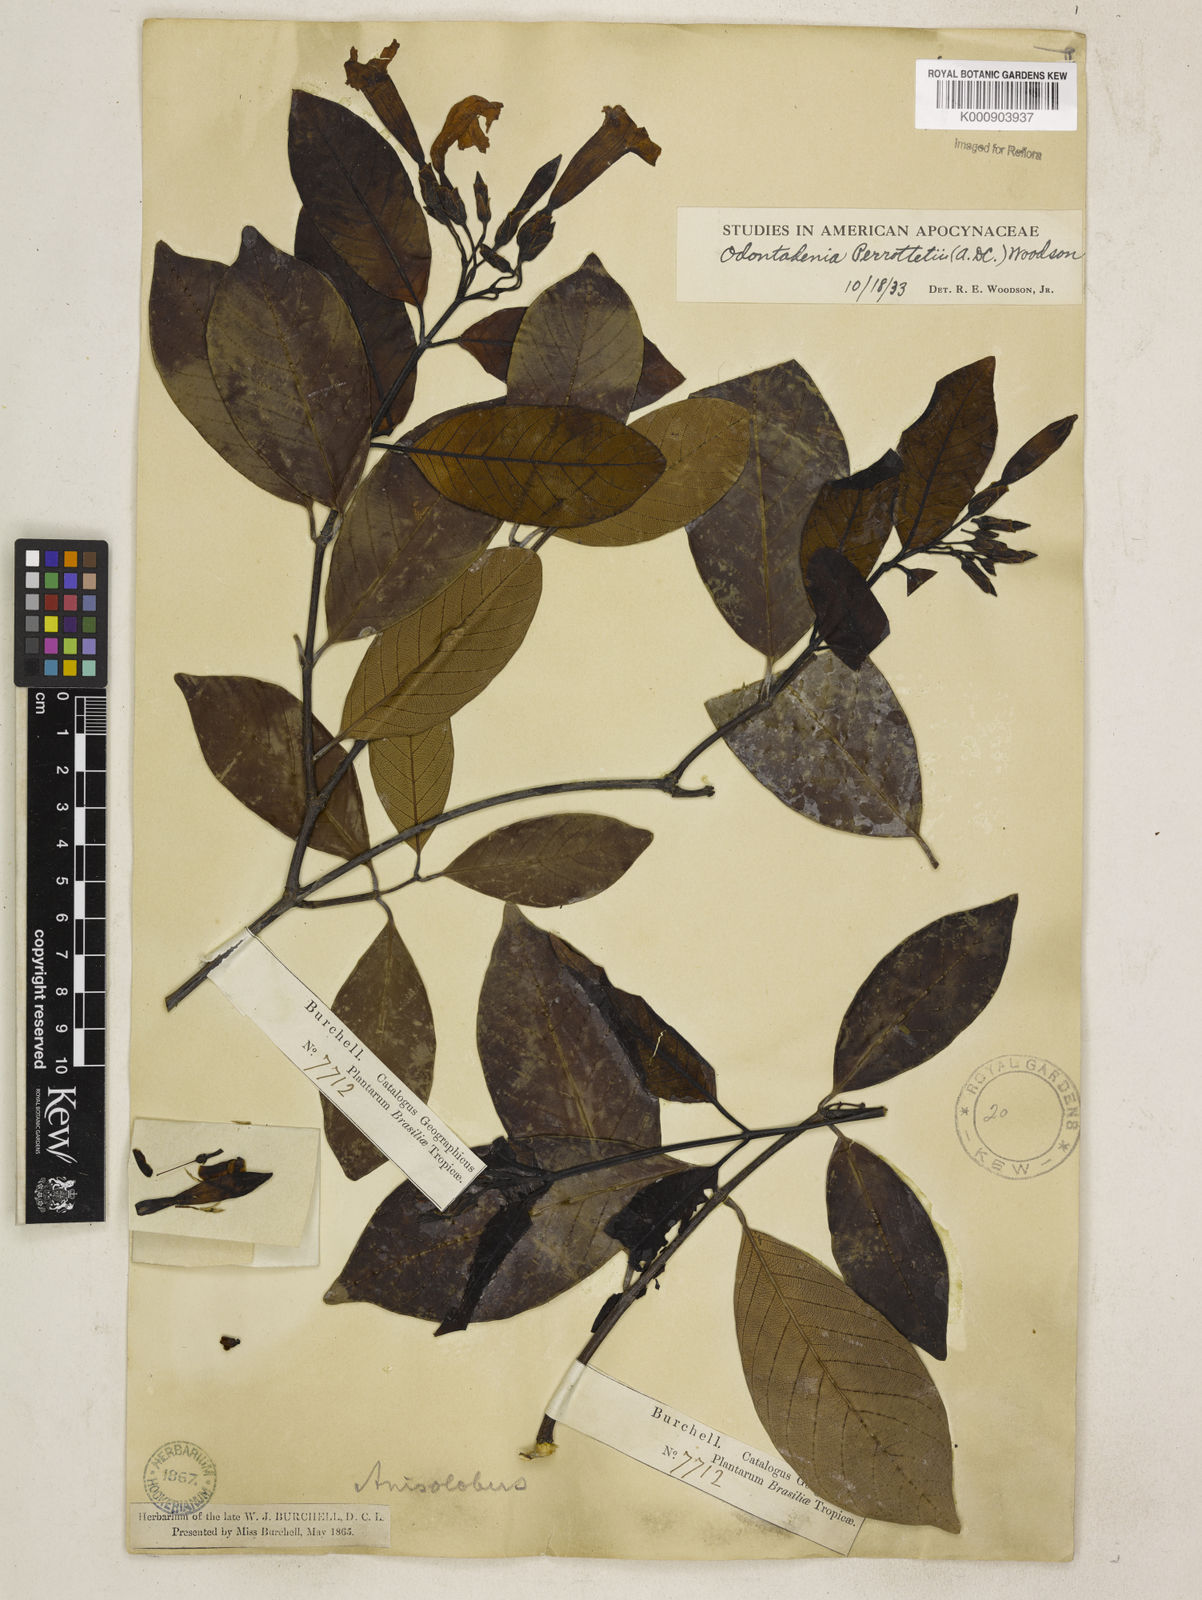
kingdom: Plantae
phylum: Tracheophyta
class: Magnoliopsida
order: Gentianales
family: Apocynaceae
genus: Odontadenia
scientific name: Odontadenia perrottetii
